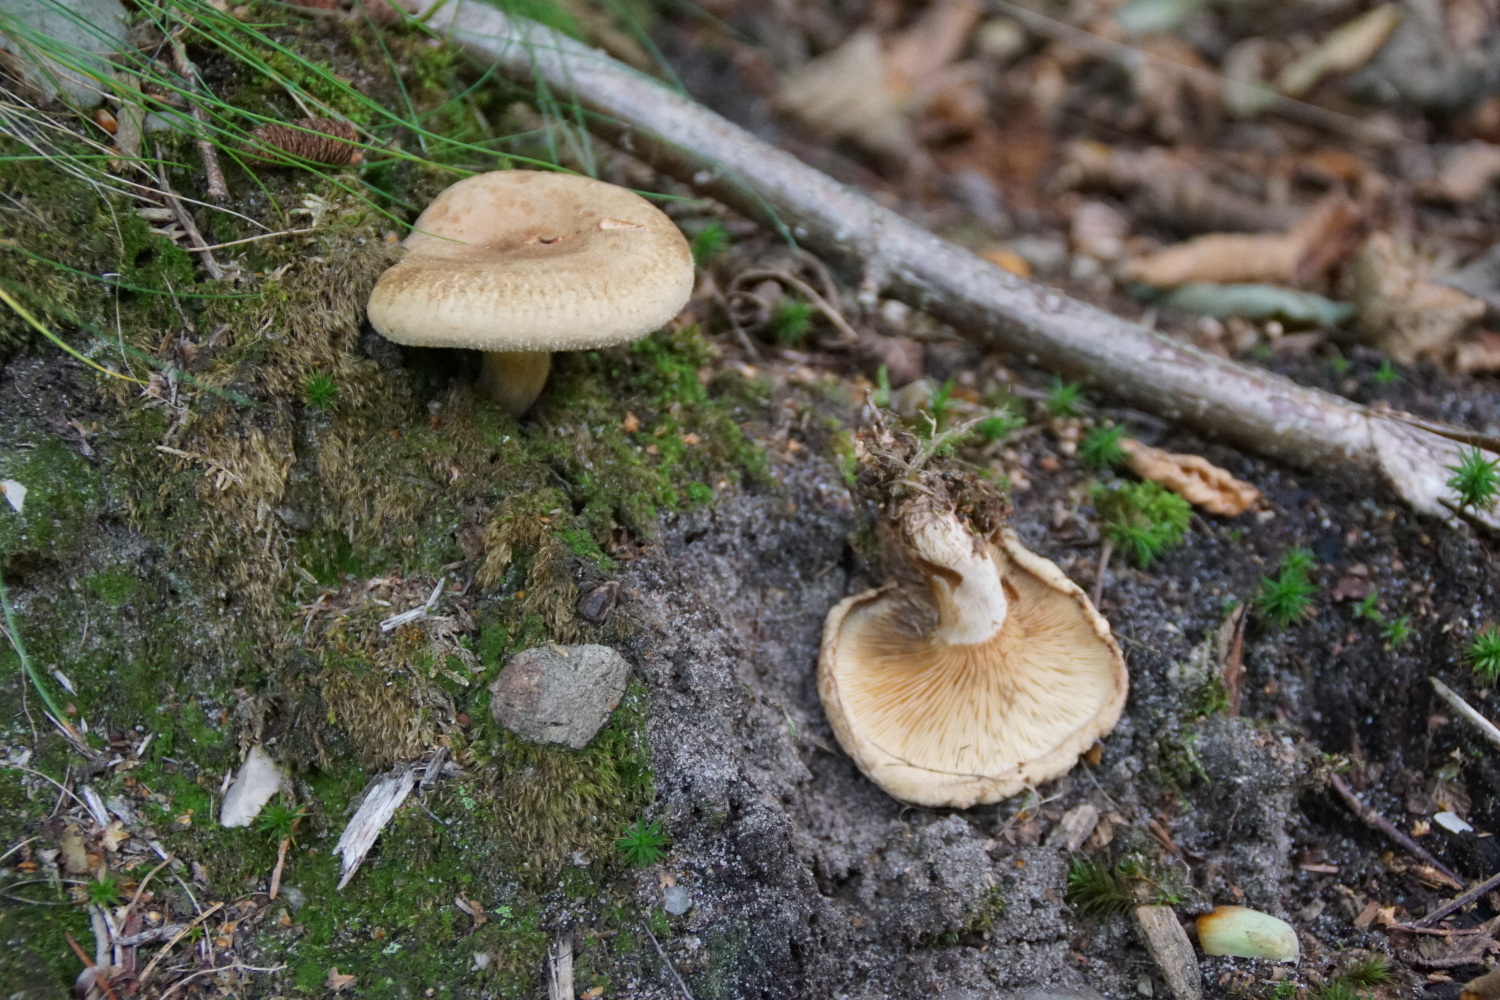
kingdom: Fungi
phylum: Basidiomycota
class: Agaricomycetes
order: Boletales
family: Paxillaceae
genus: Paxillus
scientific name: Paxillus involutus
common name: almindelig netbladhat
